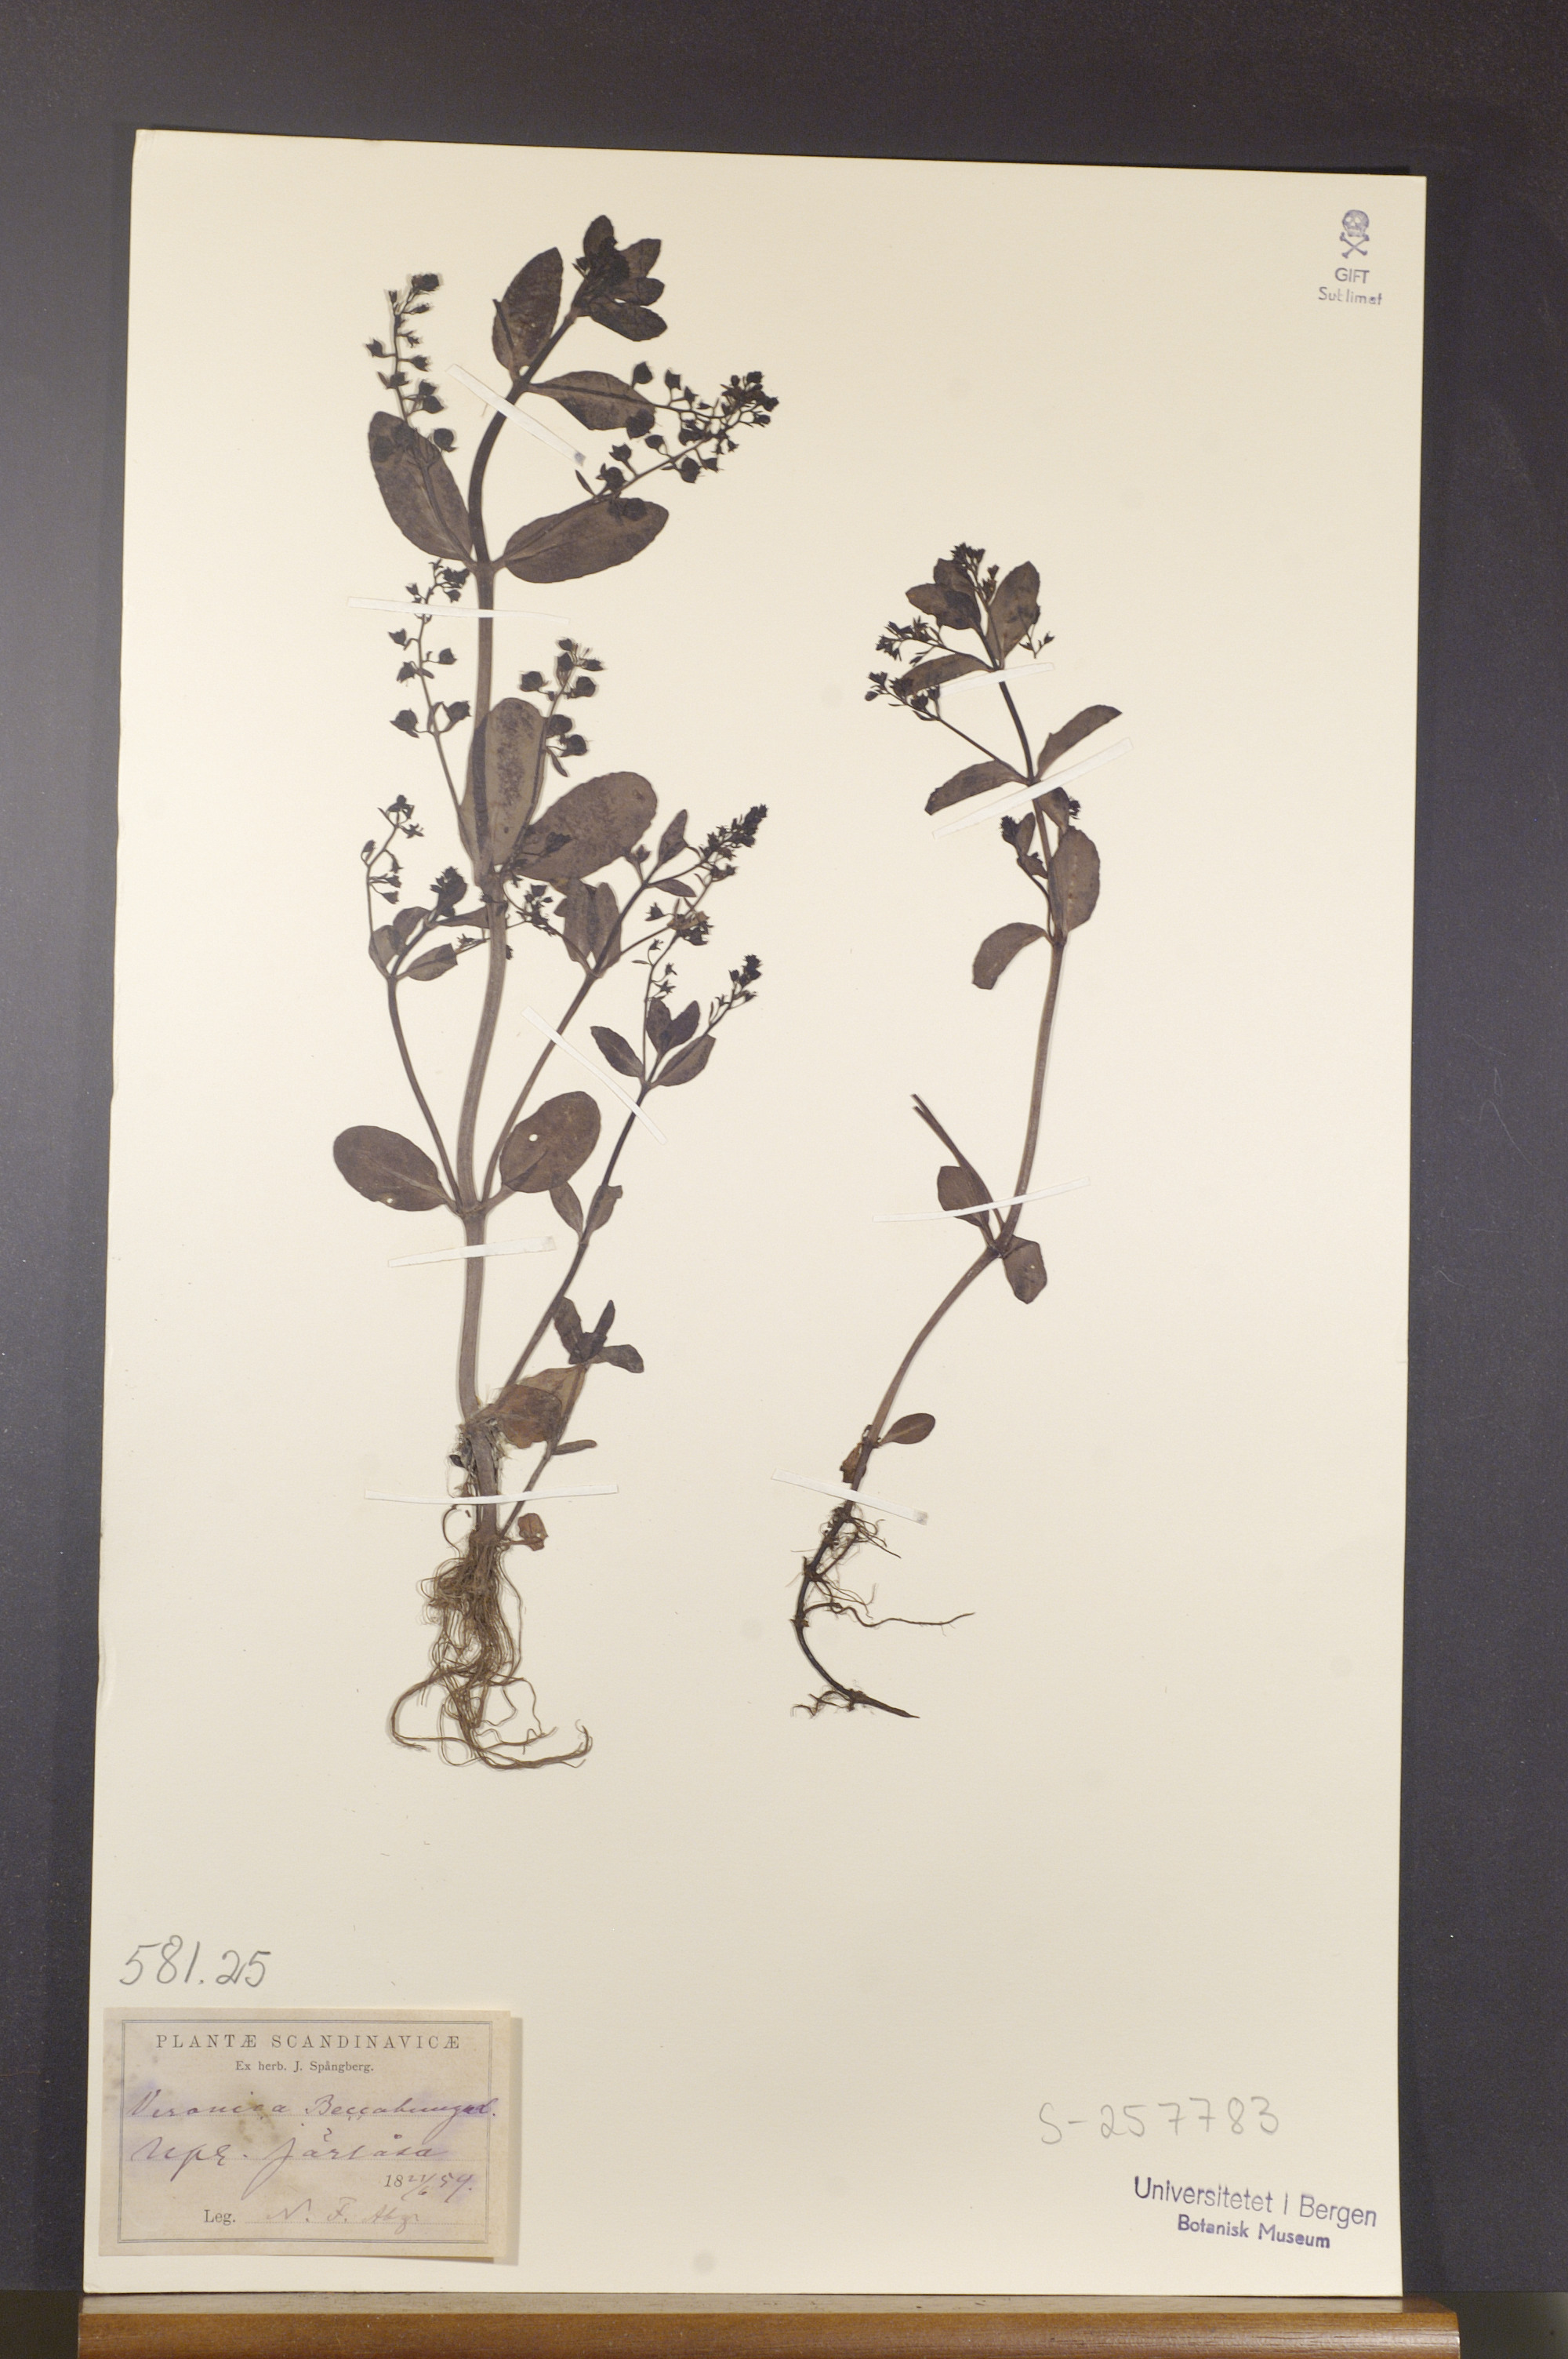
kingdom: Plantae
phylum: Tracheophyta
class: Magnoliopsida
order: Lamiales
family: Plantaginaceae
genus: Veronica
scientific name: Veronica beccabunga
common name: Brooklime
